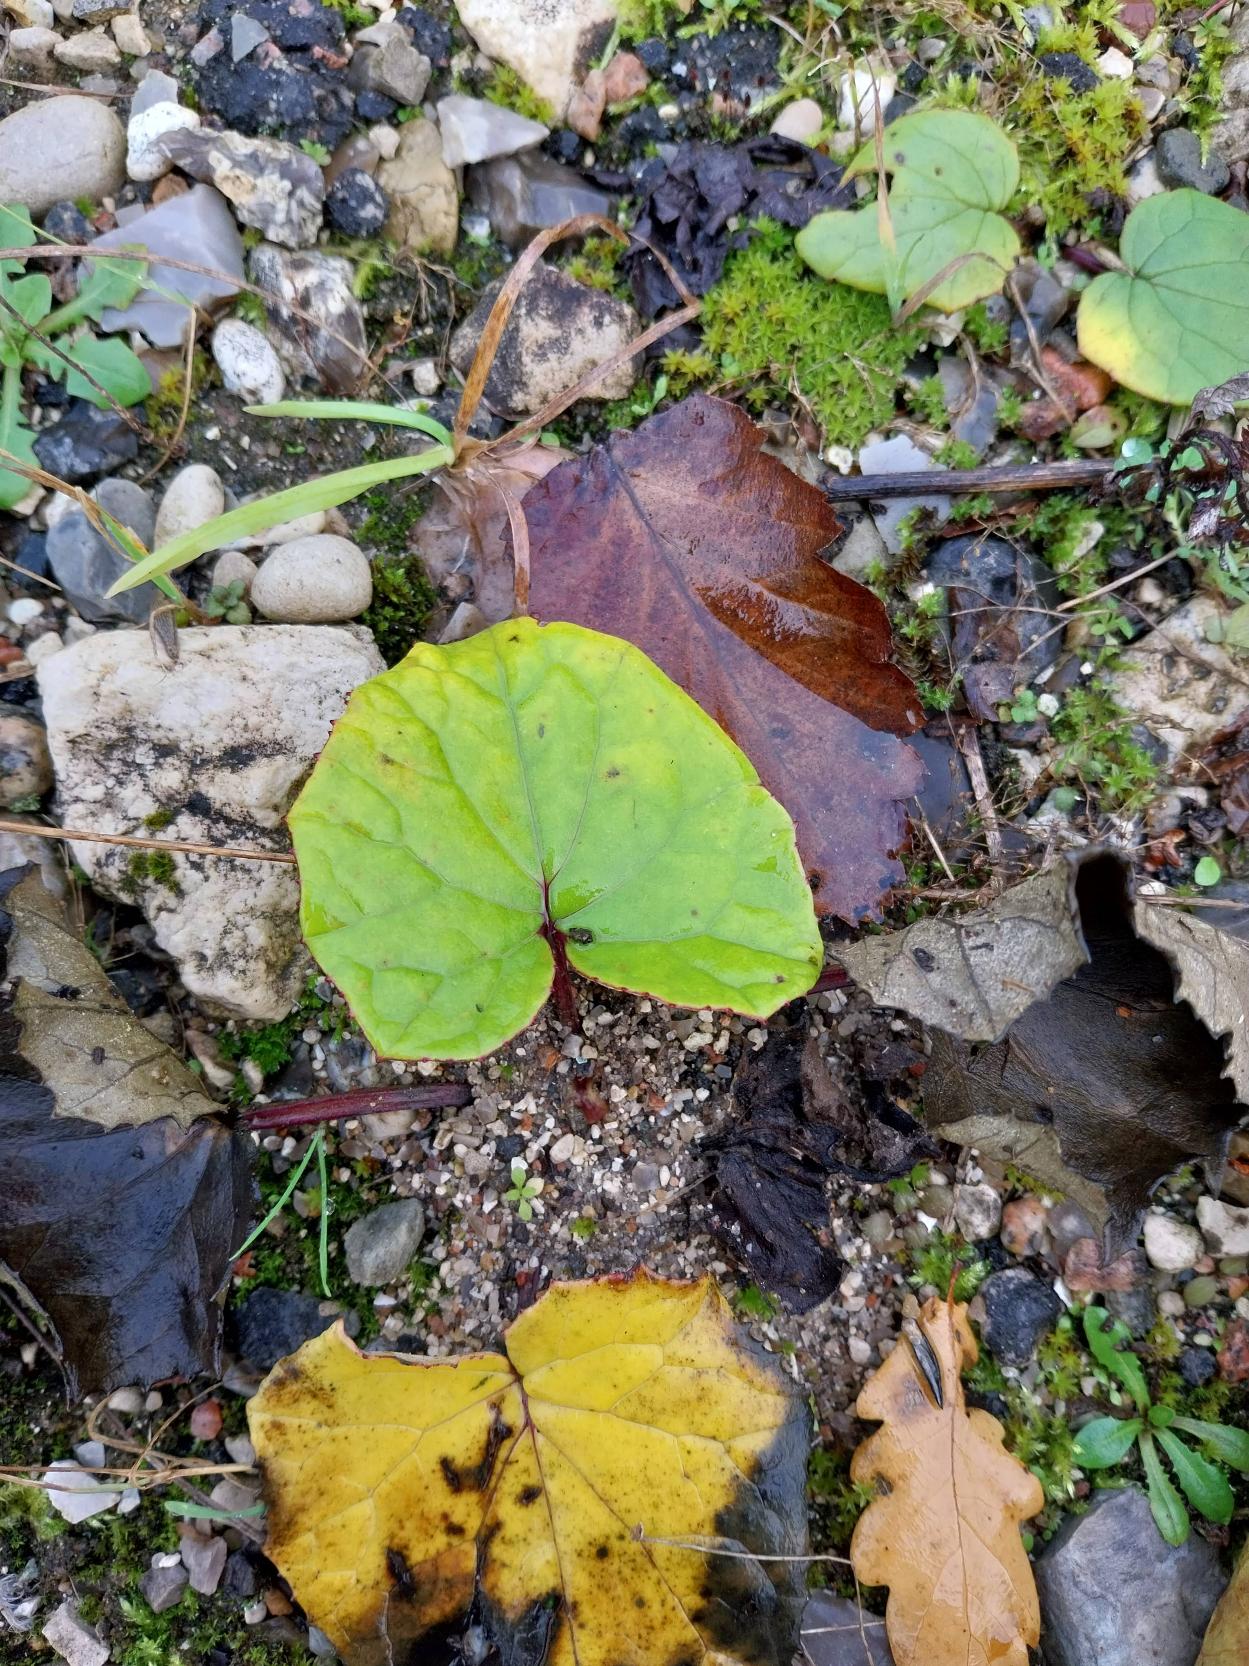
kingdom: Plantae
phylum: Tracheophyta
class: Magnoliopsida
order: Asterales
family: Asteraceae
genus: Tussilago
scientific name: Tussilago farfara
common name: Følfod
